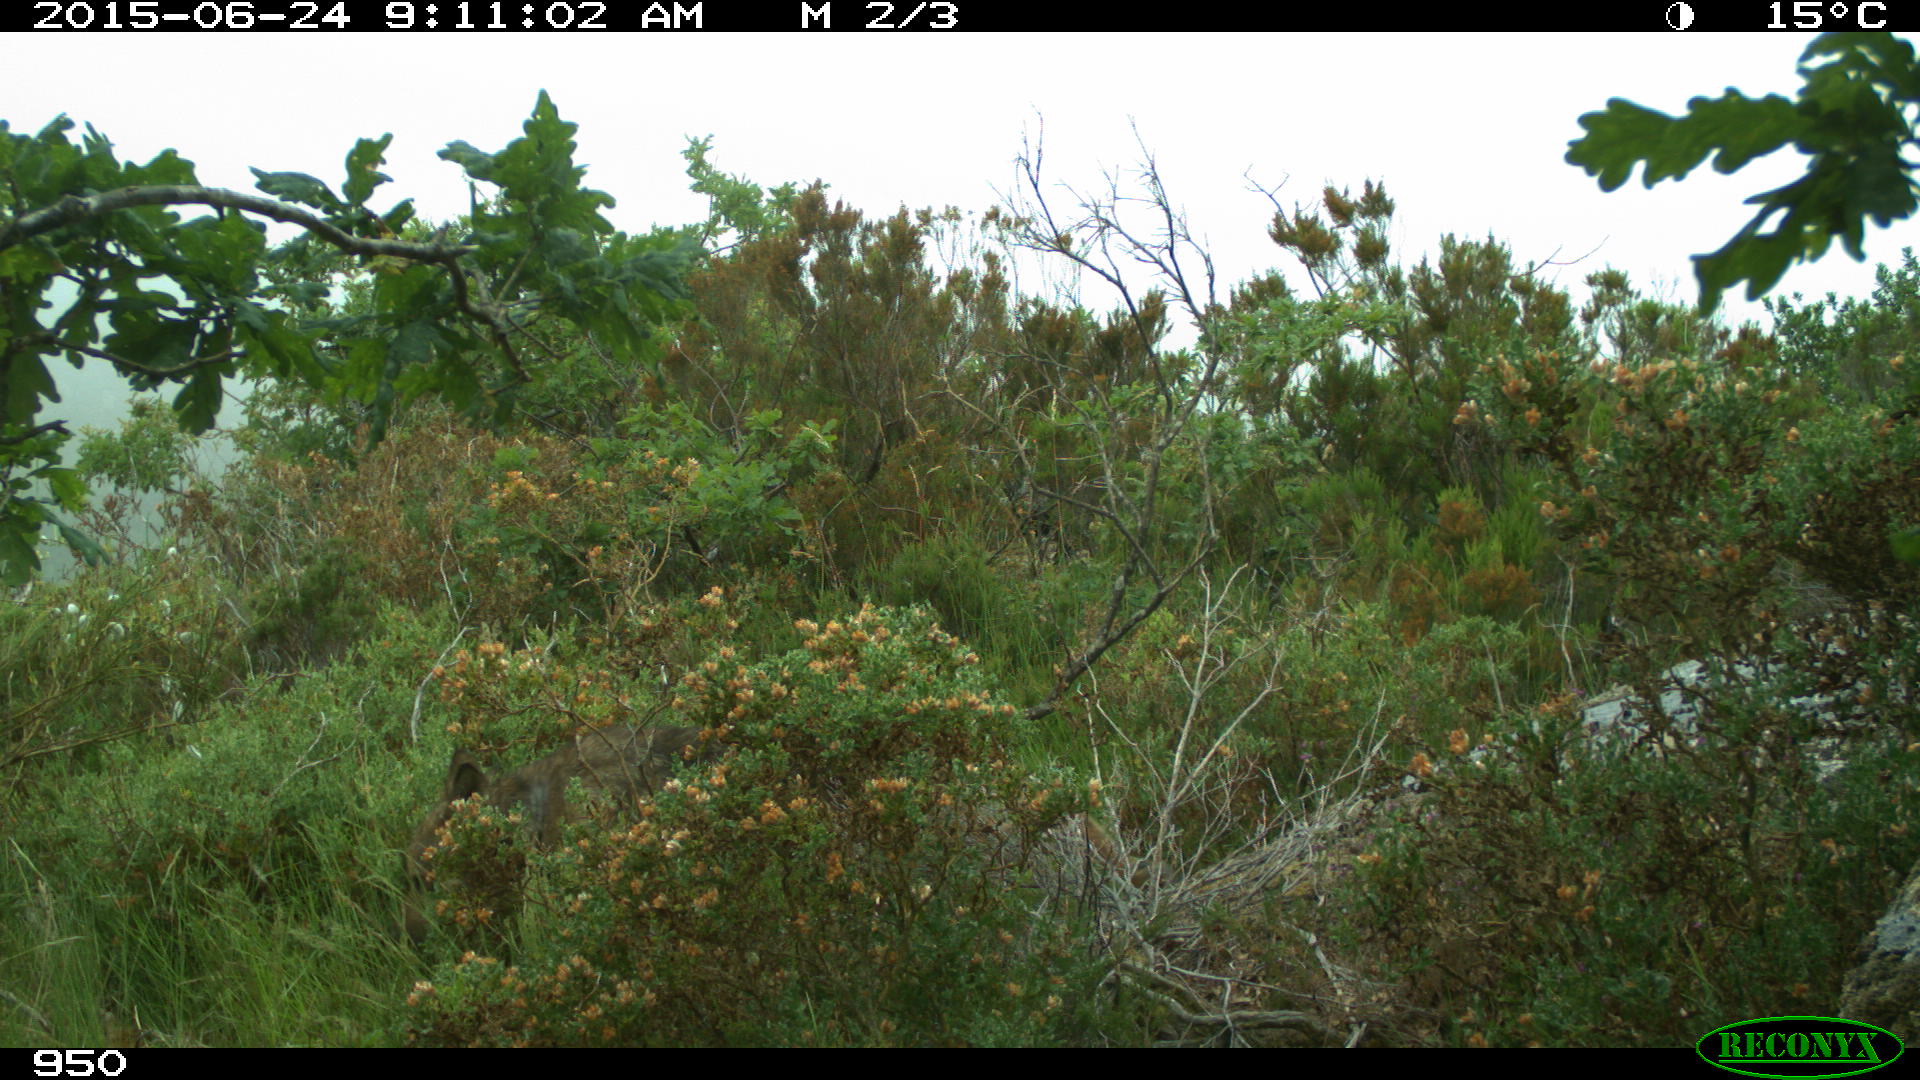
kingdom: Animalia
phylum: Chordata
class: Mammalia
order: Carnivora
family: Canidae
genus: Canis
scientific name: Canis lupus
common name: Gray wolf
